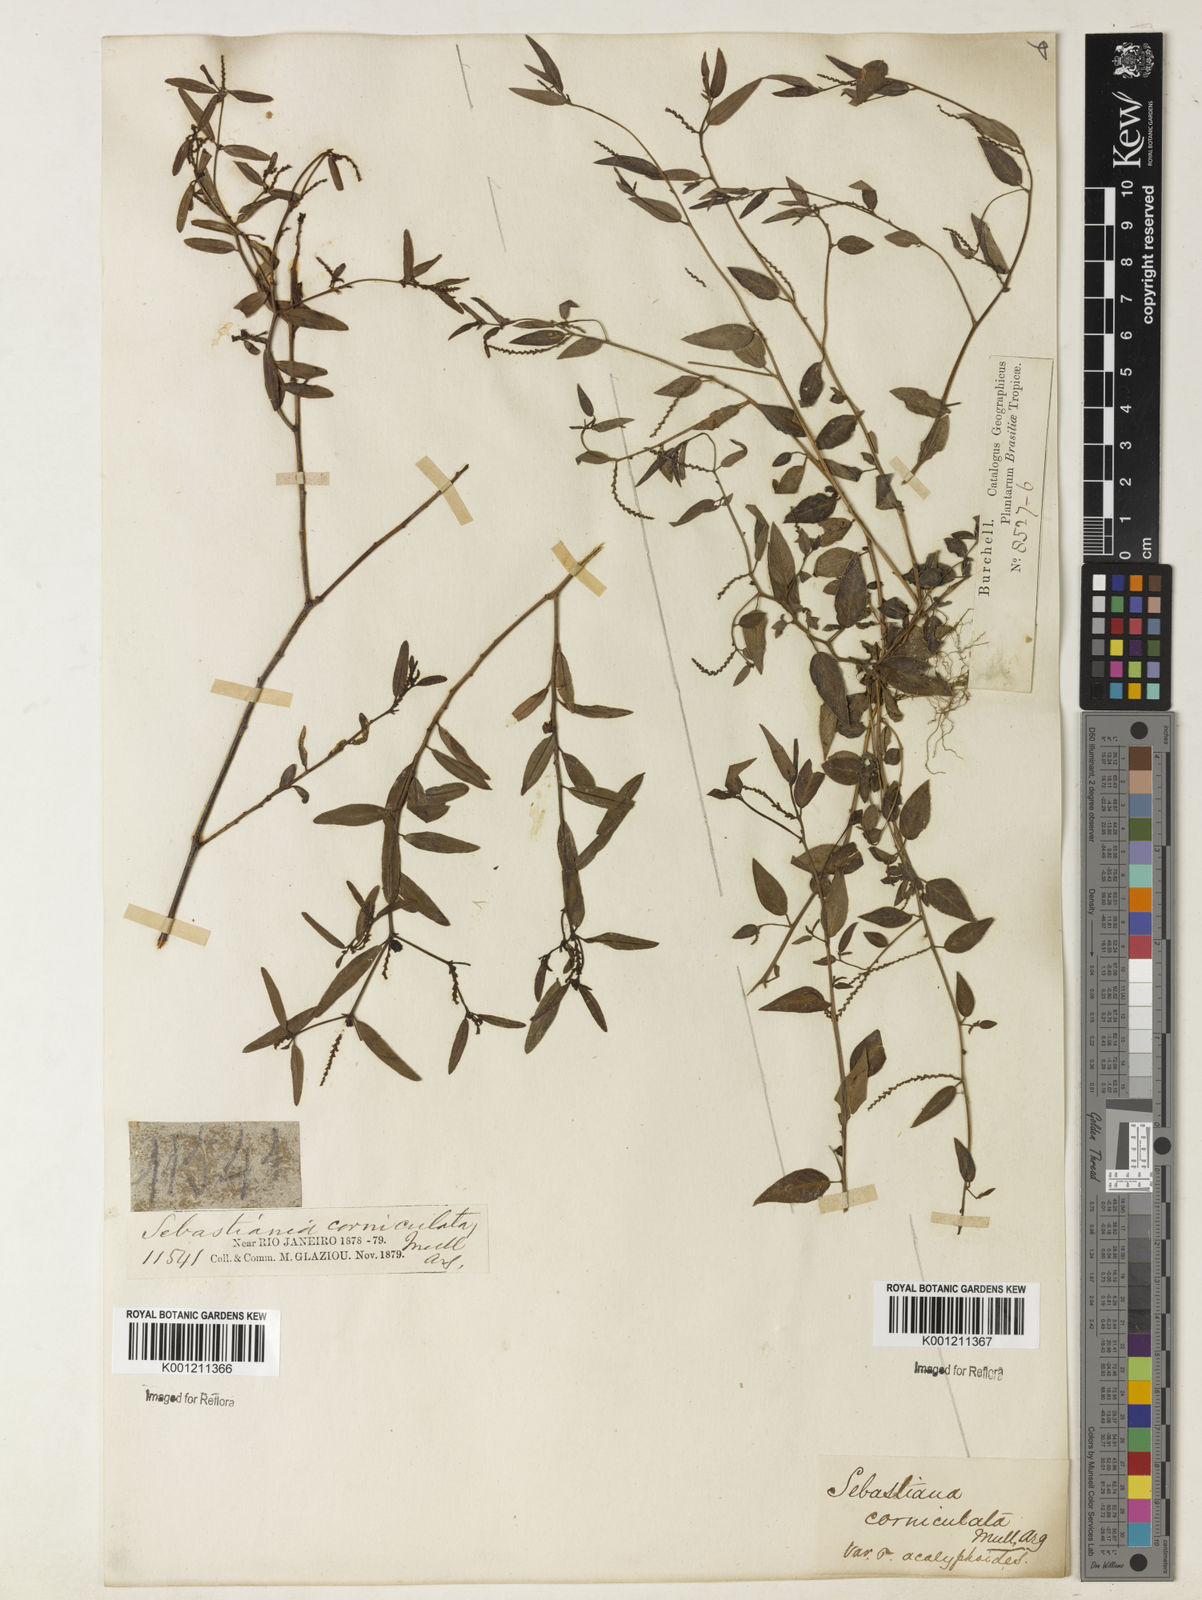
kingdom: Plantae
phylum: Tracheophyta
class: Magnoliopsida
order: Malpighiales
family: Euphorbiaceae
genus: Microstachys
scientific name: Microstachys corniculata
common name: Hato tejas
